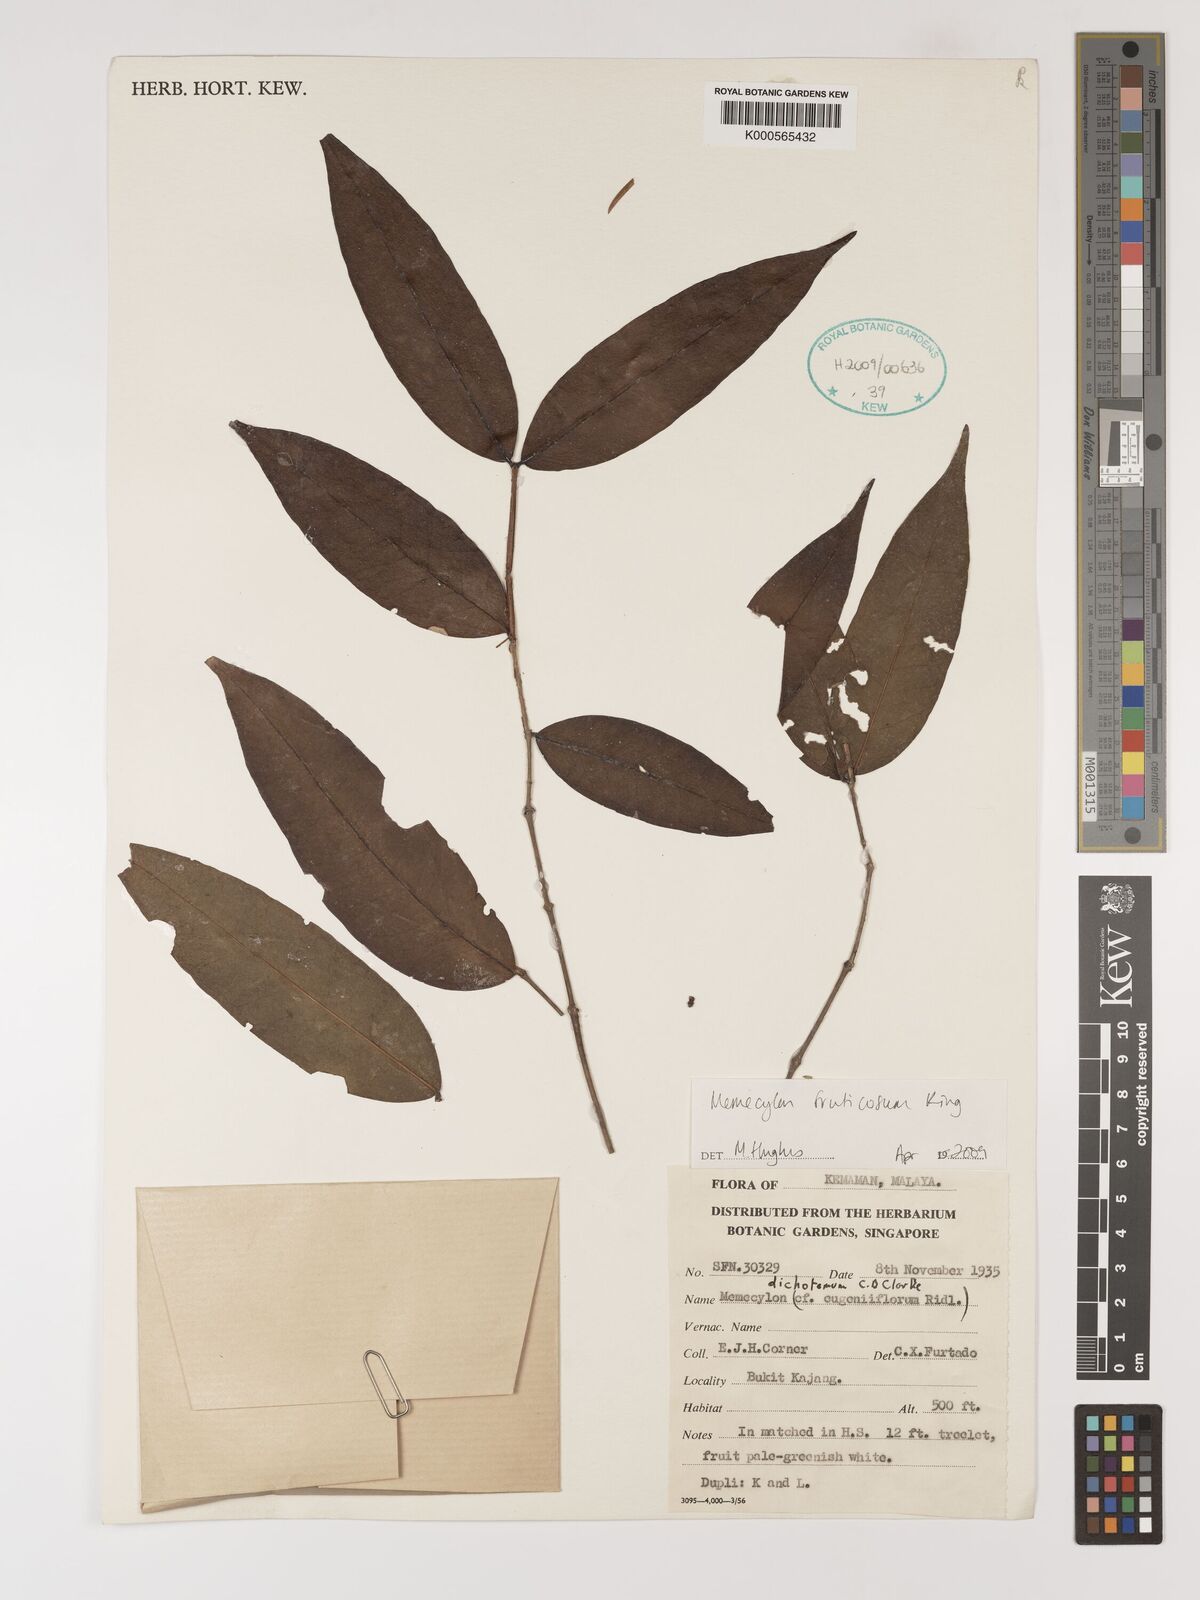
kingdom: Plantae
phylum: Tracheophyta
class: Magnoliopsida
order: Myrtales
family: Melastomataceae
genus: Memecylon
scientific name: Memecylon fruticosum
